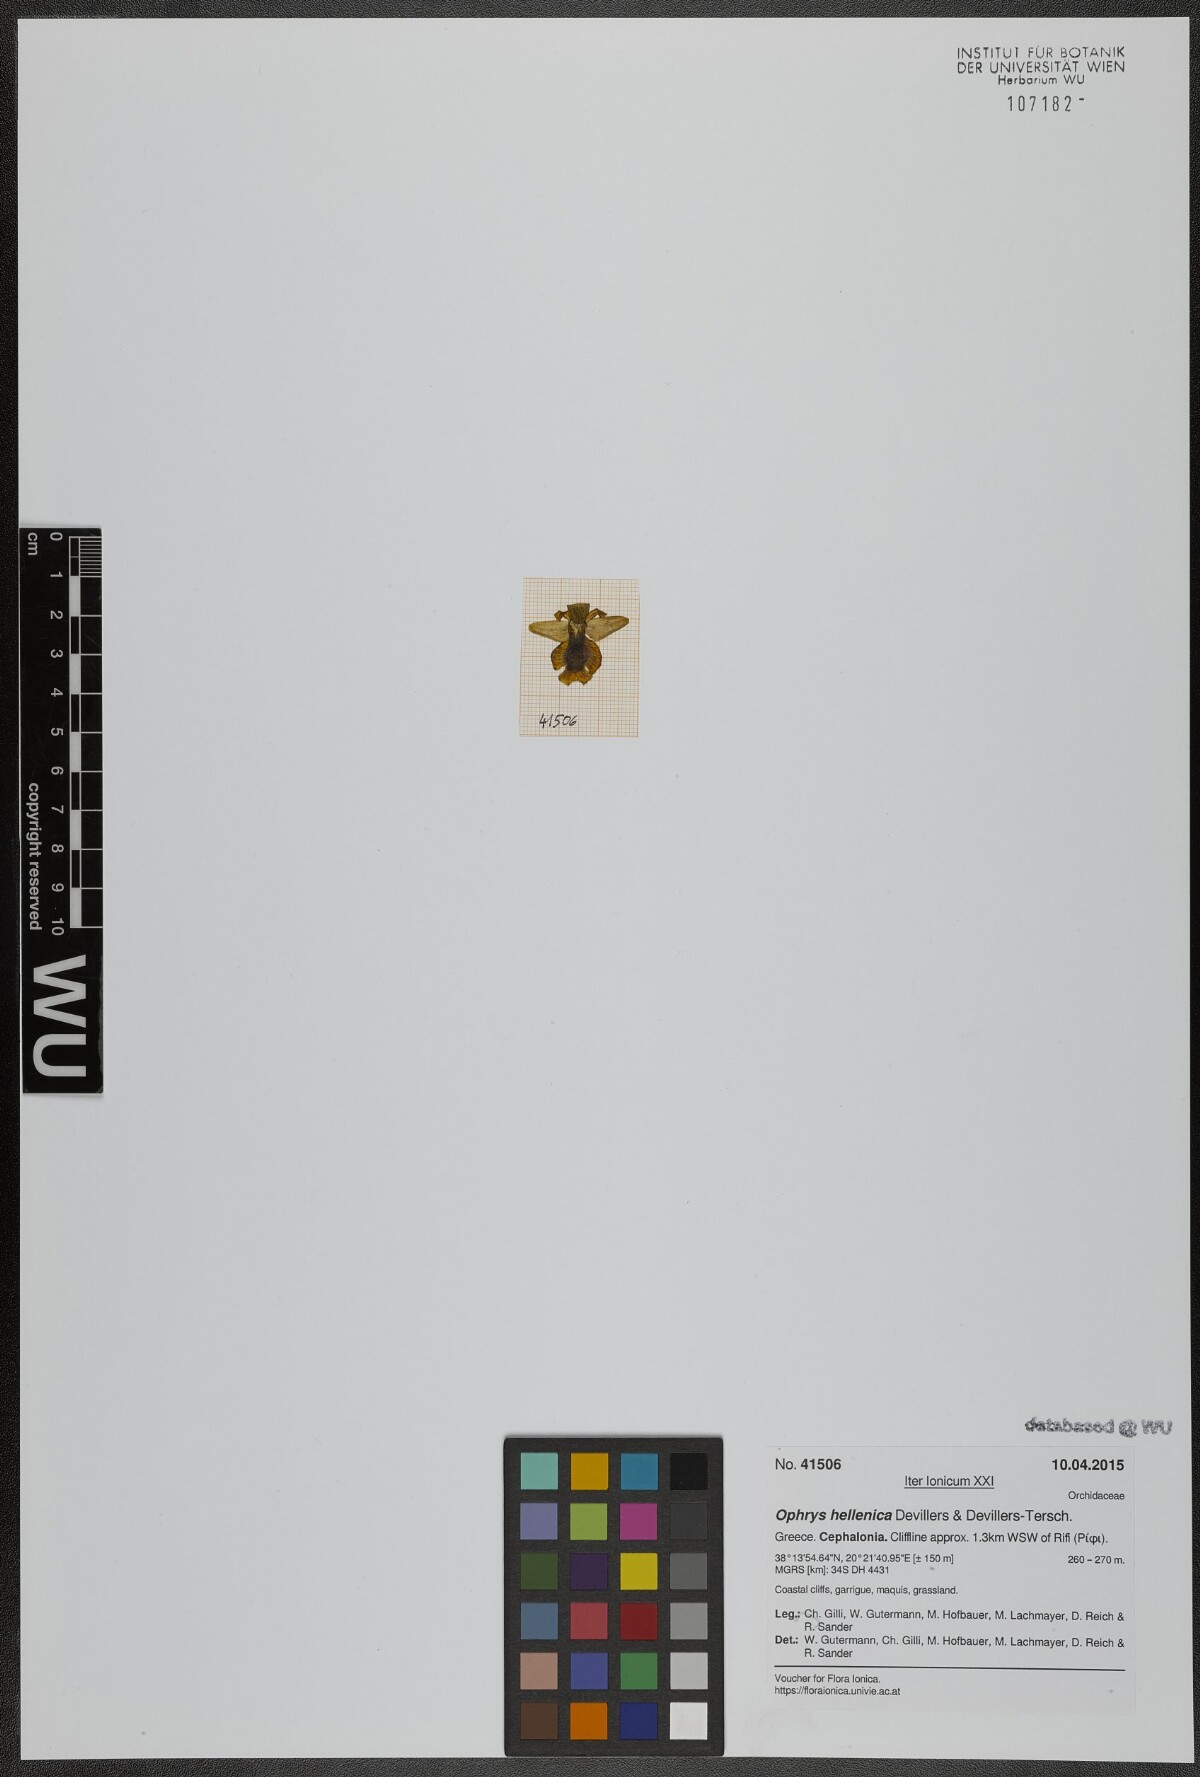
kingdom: Plantae
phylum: Tracheophyta
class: Liliopsida
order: Asparagales
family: Orchidaceae
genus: Ophrys
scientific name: Ophrys lutea
